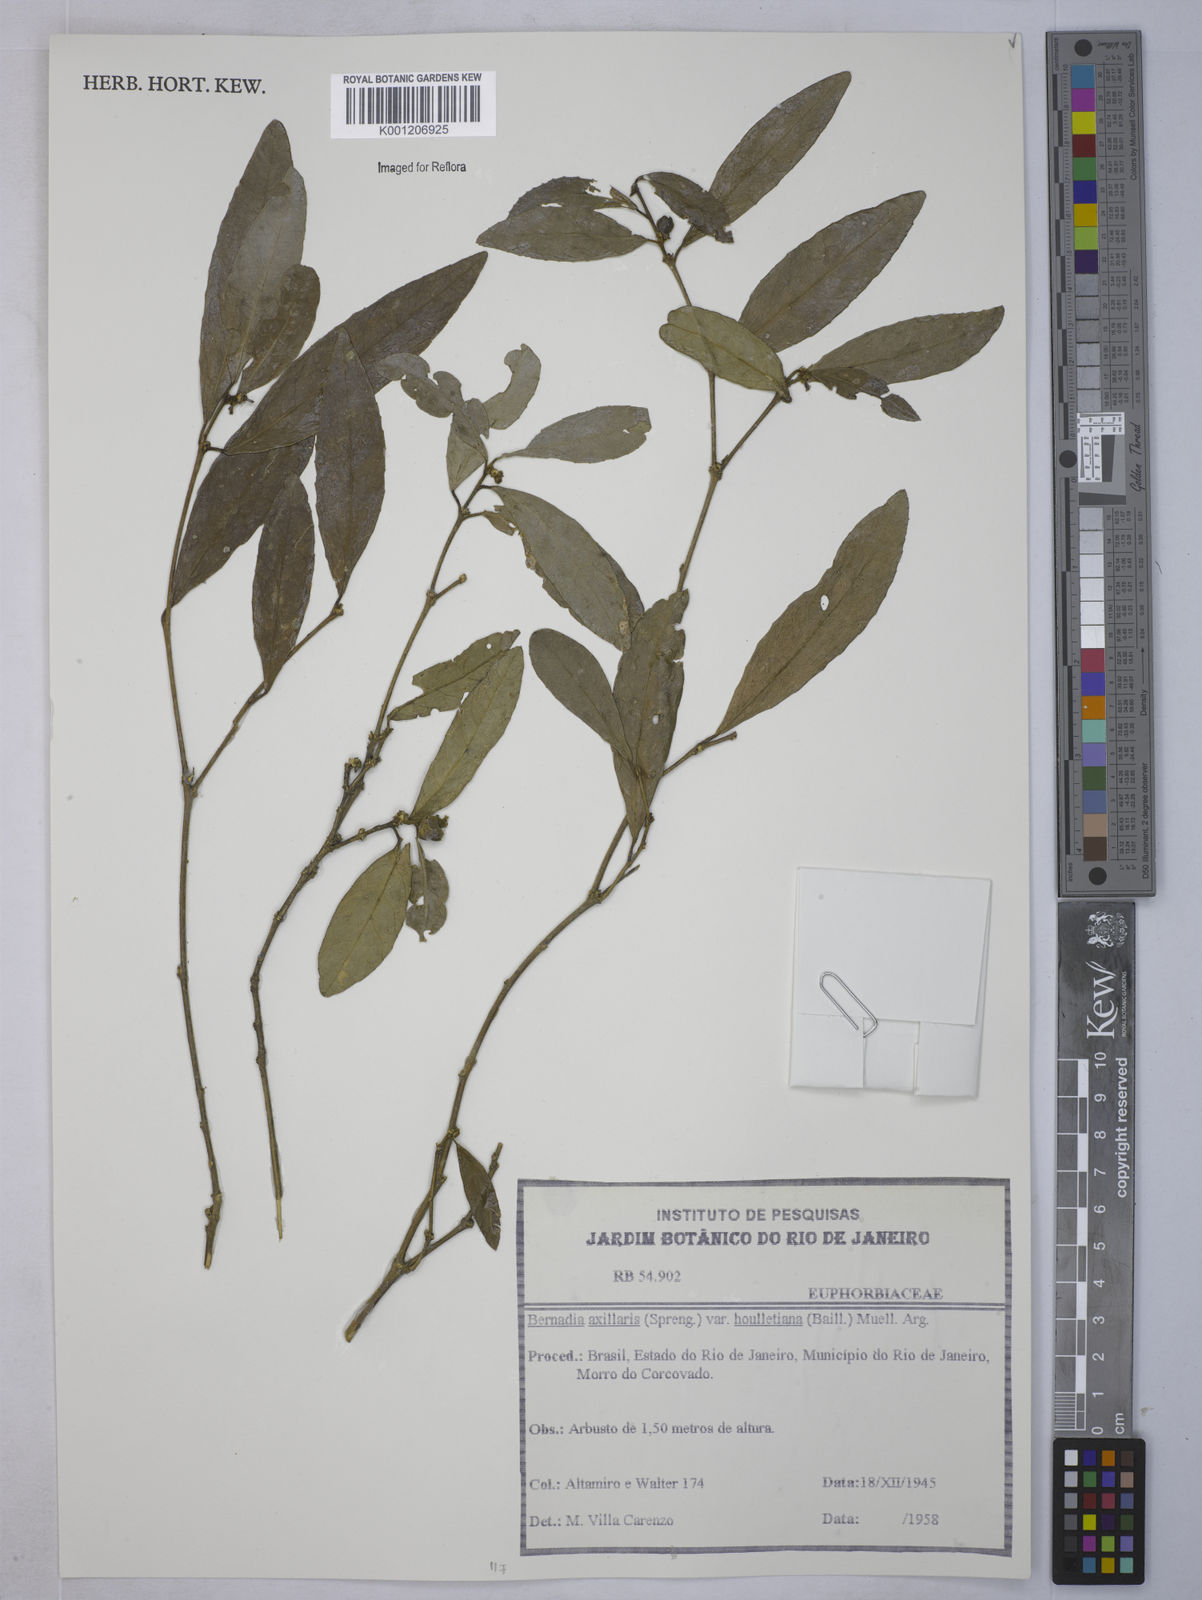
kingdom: Plantae
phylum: Tracheophyta
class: Magnoliopsida
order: Malpighiales
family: Euphorbiaceae
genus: Bernardia
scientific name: Bernardia
